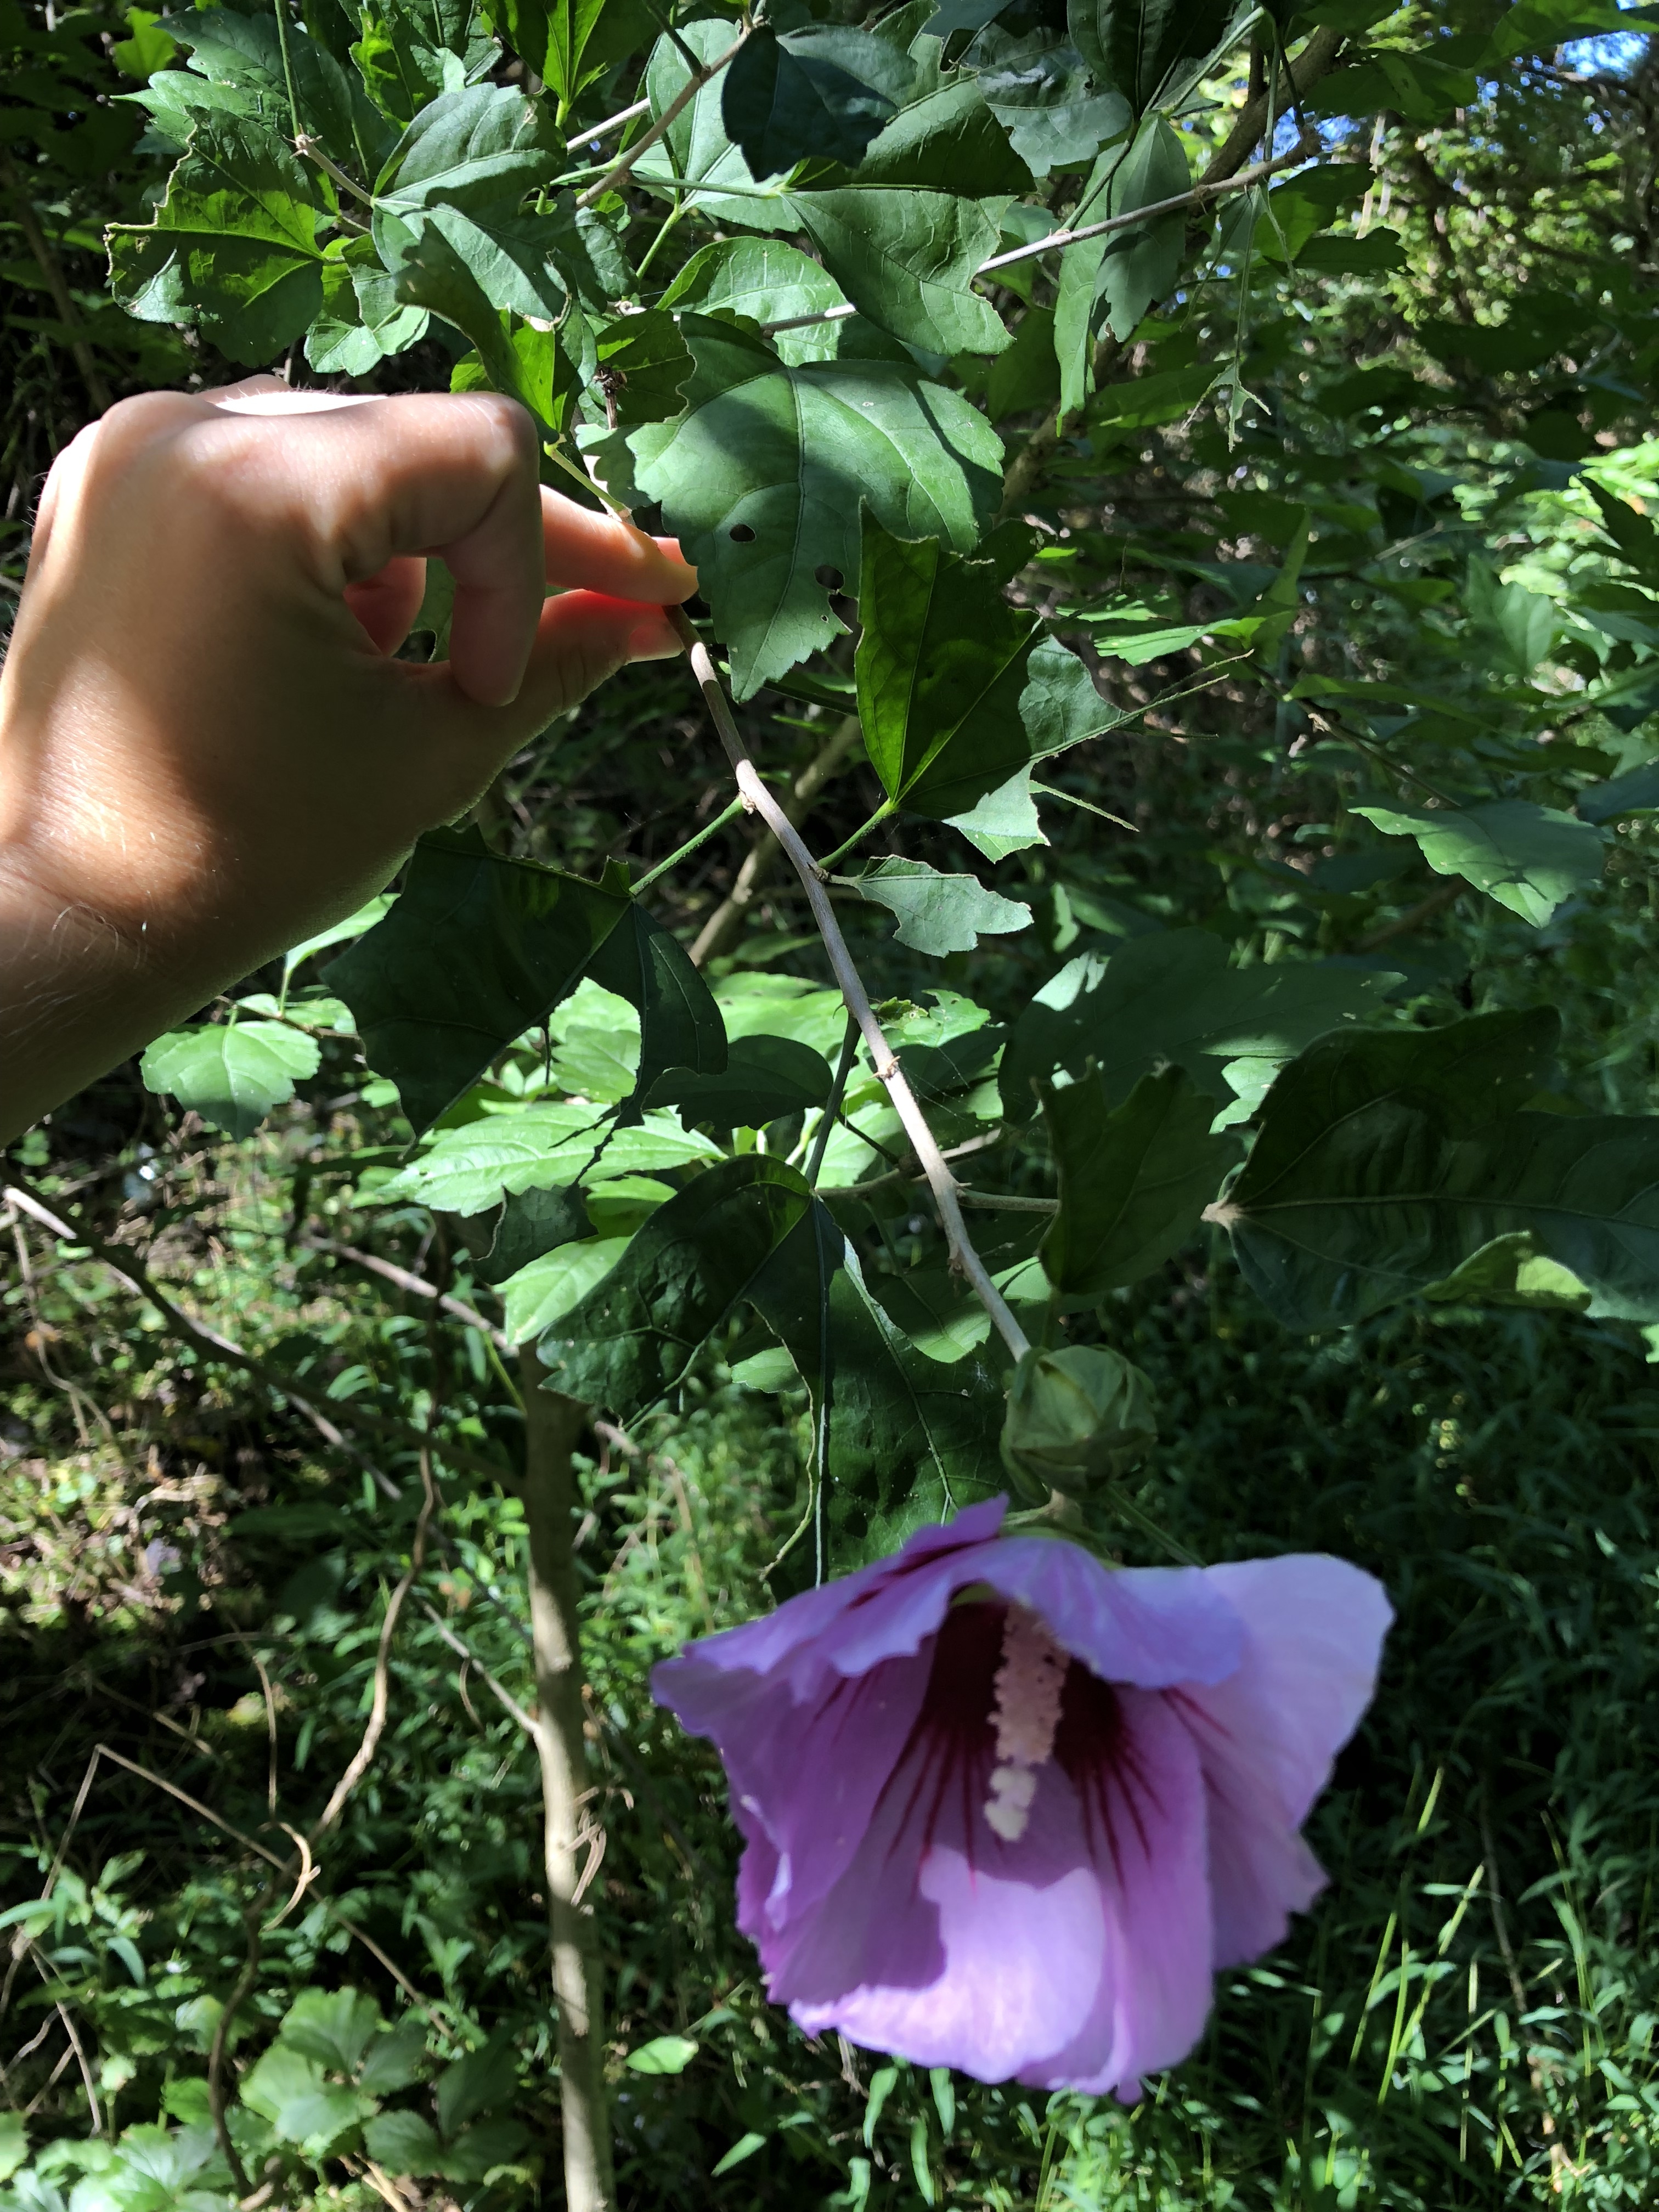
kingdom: Plantae
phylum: Tracheophyta
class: Magnoliopsida
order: Malvales
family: Malvaceae
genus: Hibiscus
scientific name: Hibiscus syriacus
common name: Rose of Sharon
